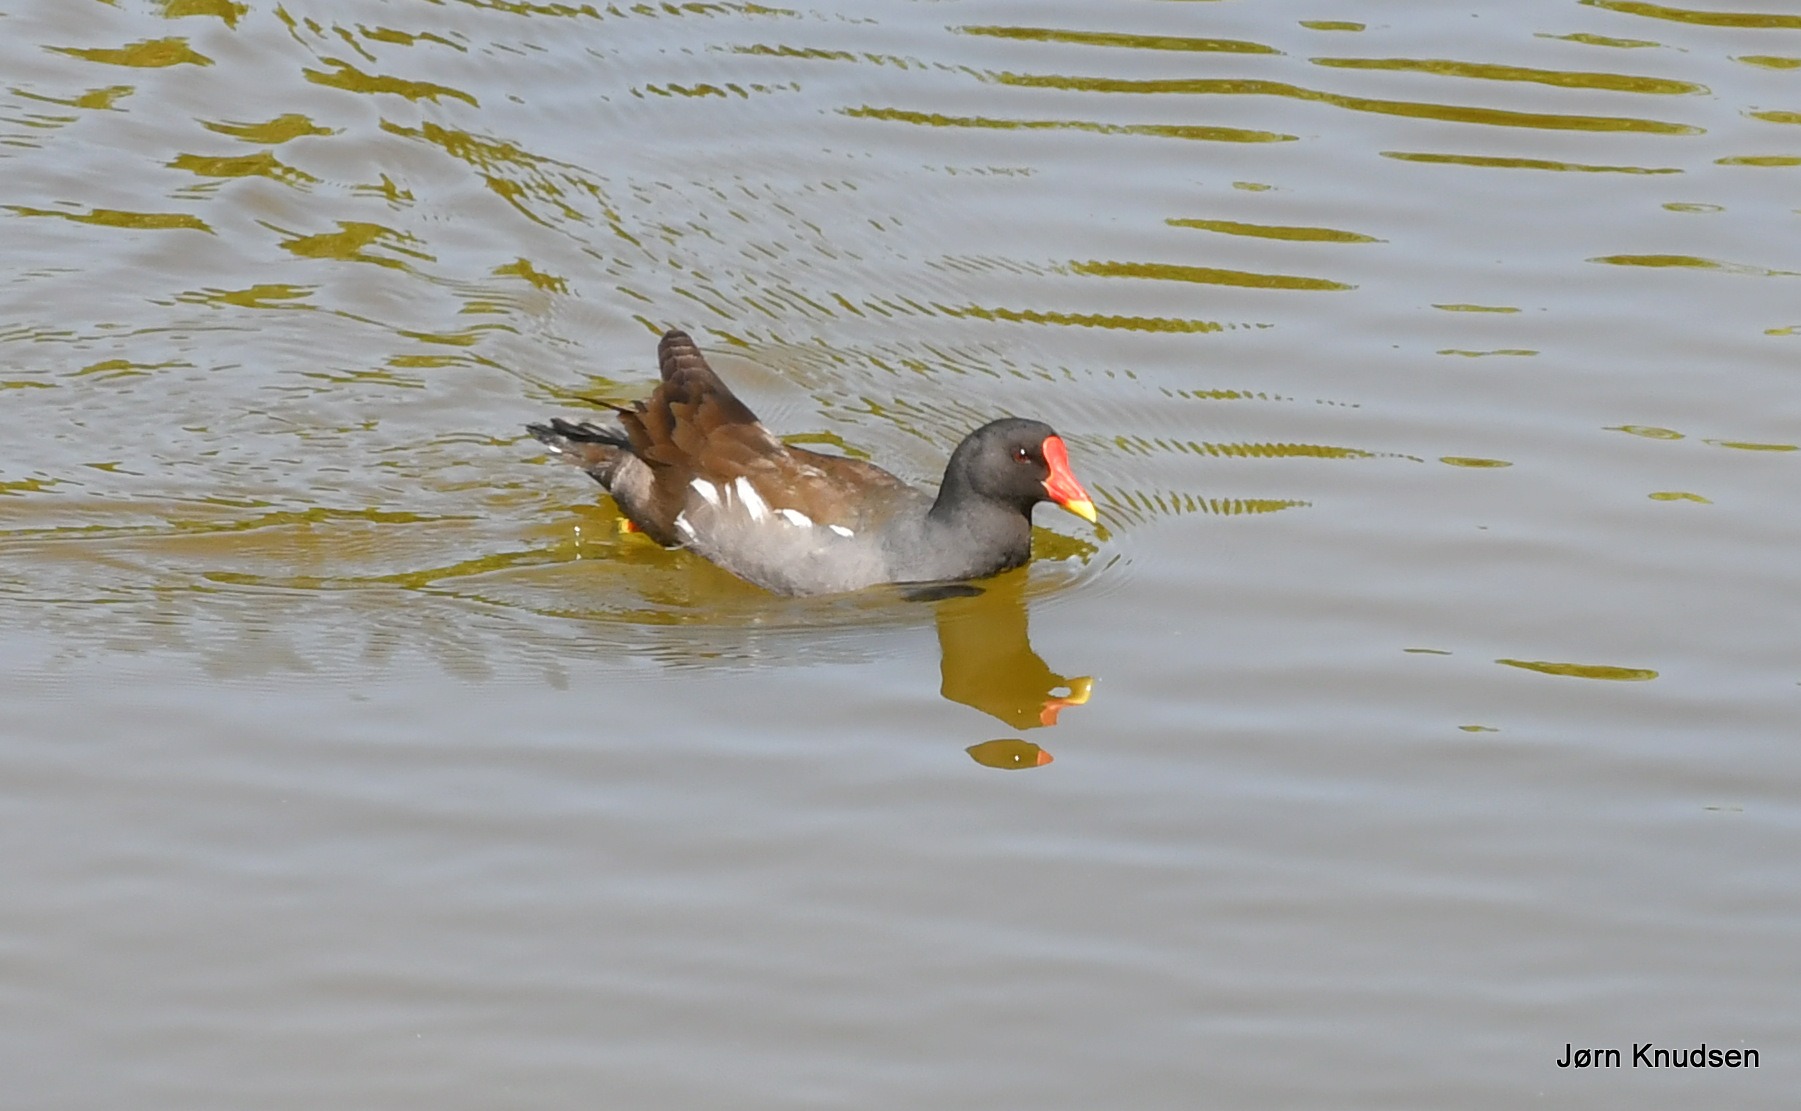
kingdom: Animalia
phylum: Chordata
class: Aves
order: Gruiformes
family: Rallidae
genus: Gallinula
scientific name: Gallinula chloropus
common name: Grønbenet rørhøne
